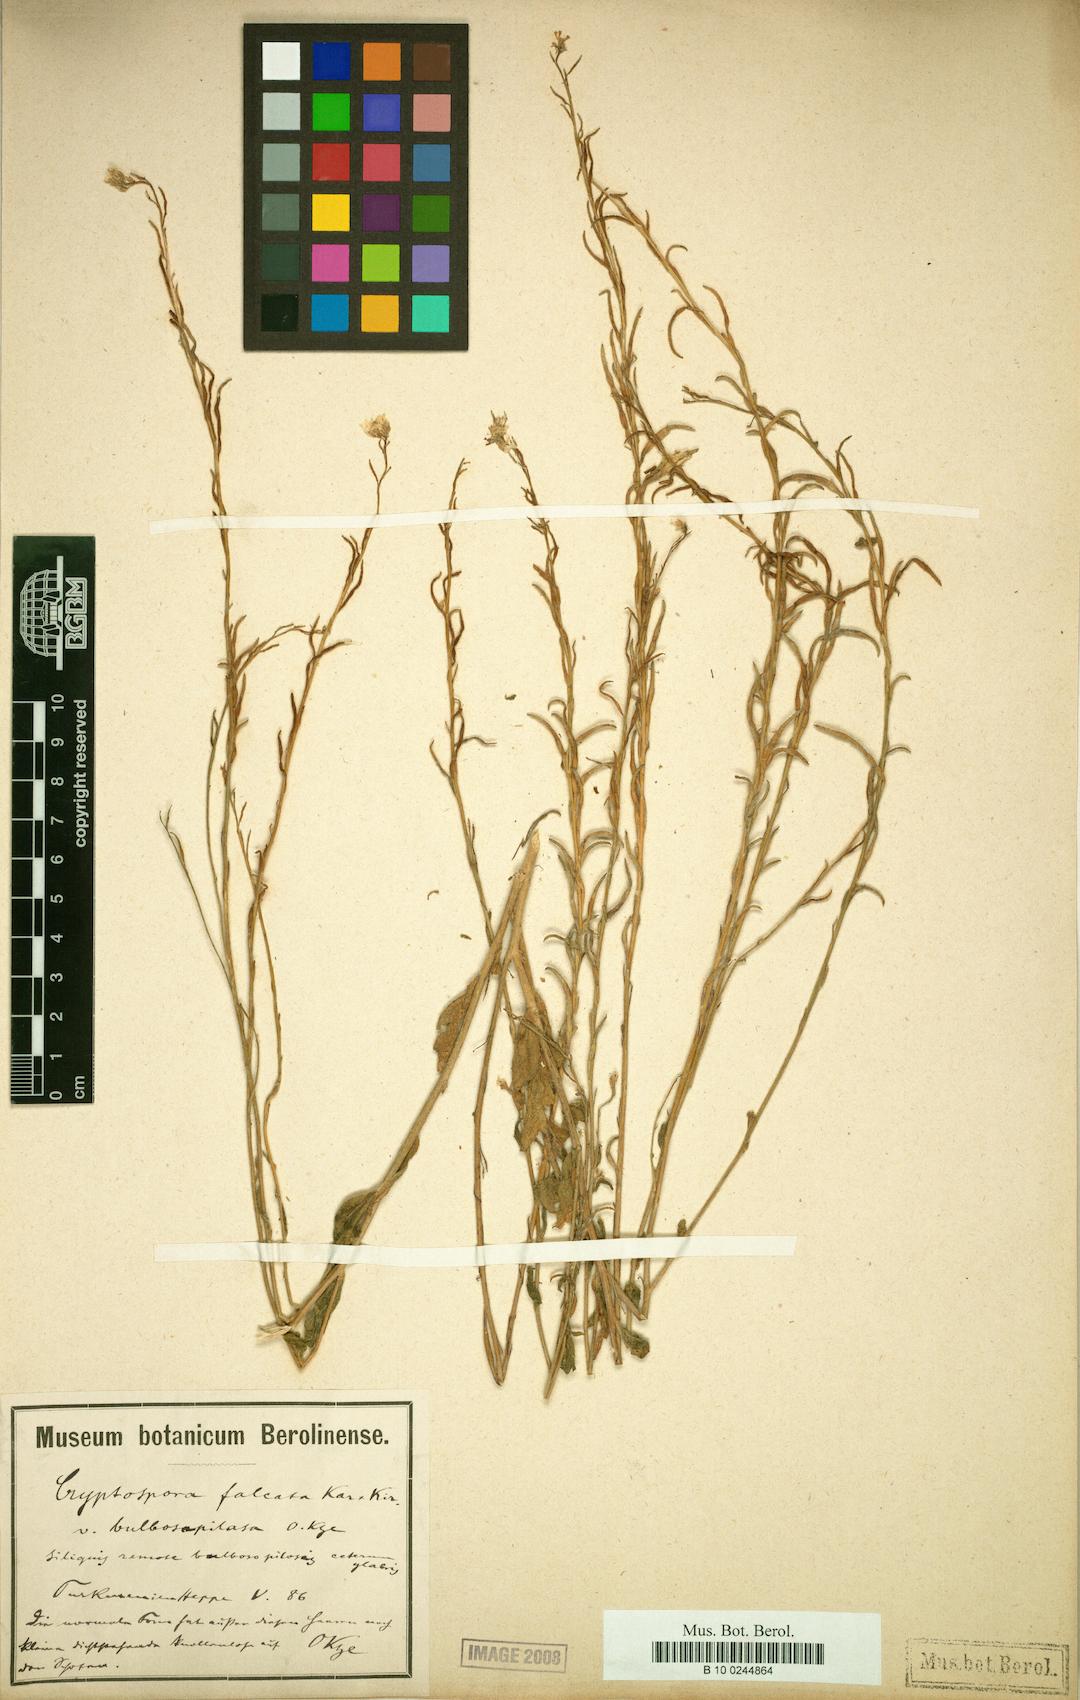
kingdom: Plantae
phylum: Tracheophyta
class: Magnoliopsida
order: Brassicales
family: Brassicaceae
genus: Cryptospora
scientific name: Cryptospora falcata
